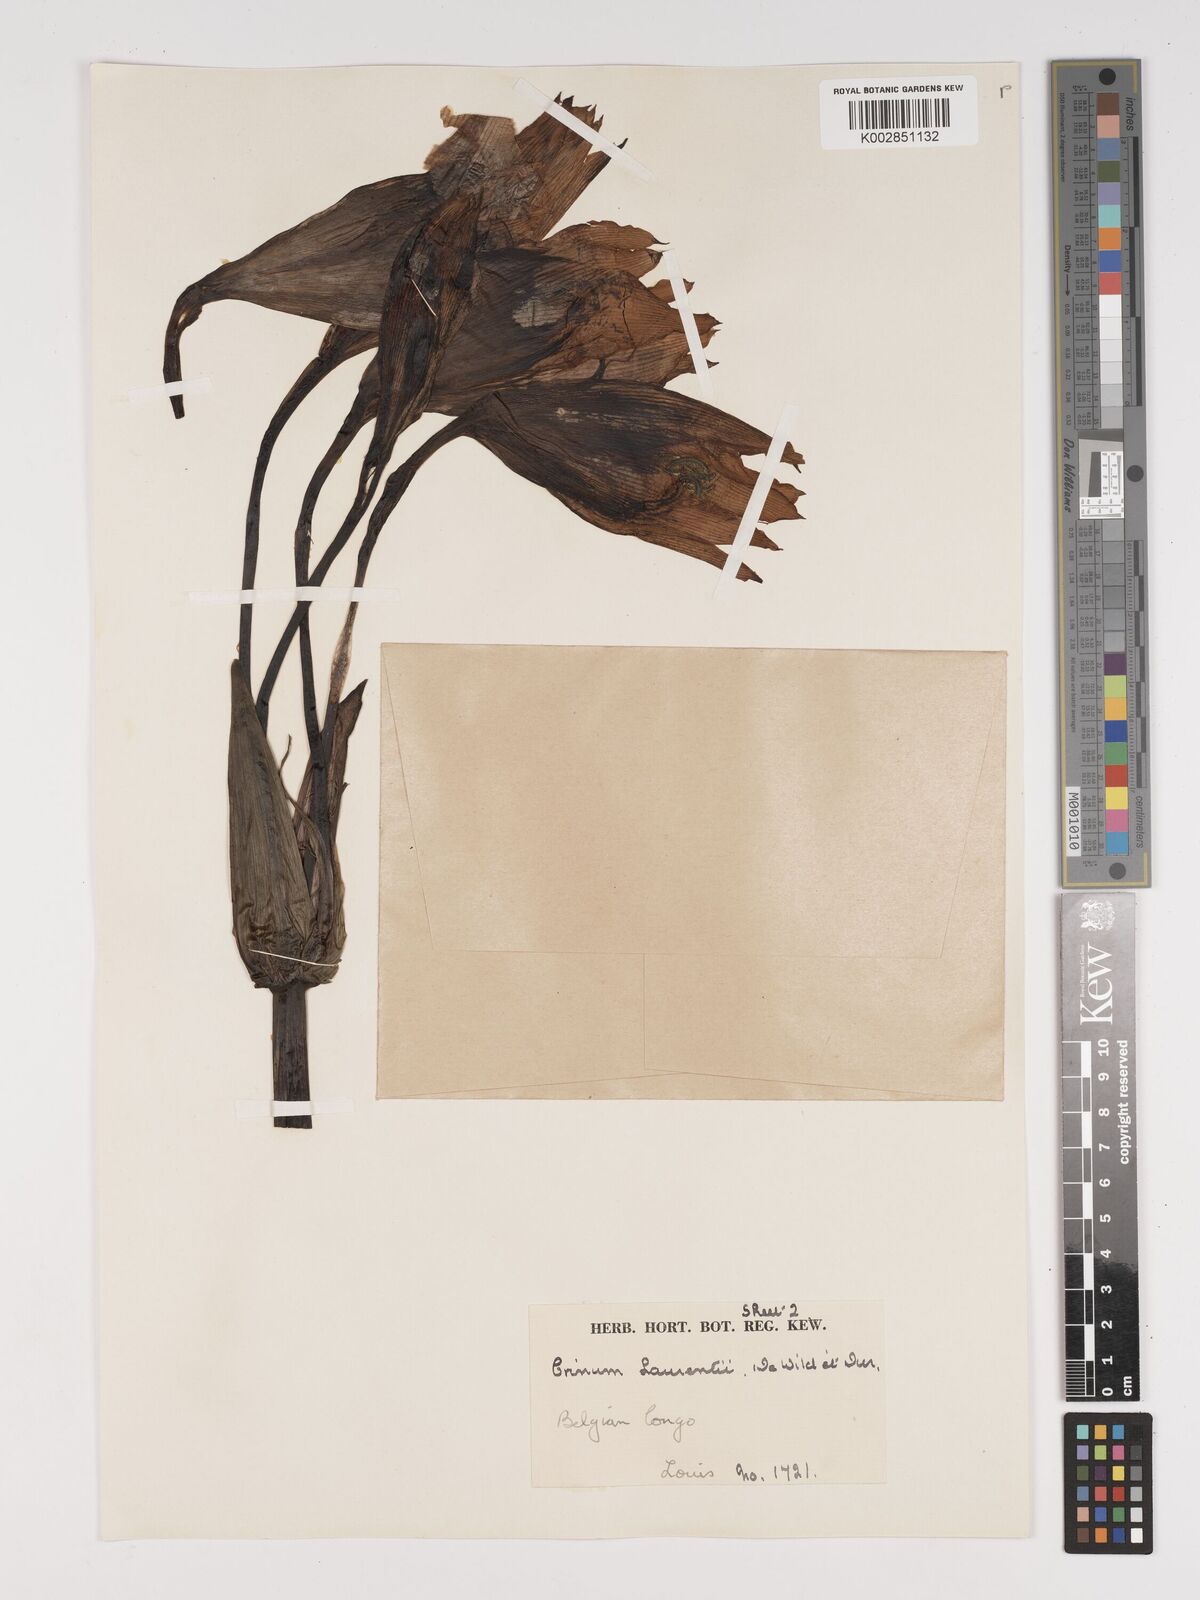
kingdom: Plantae
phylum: Tracheophyta
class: Liliopsida
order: Asparagales
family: Amaryllidaceae
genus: Crinum
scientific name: Crinum jagus
